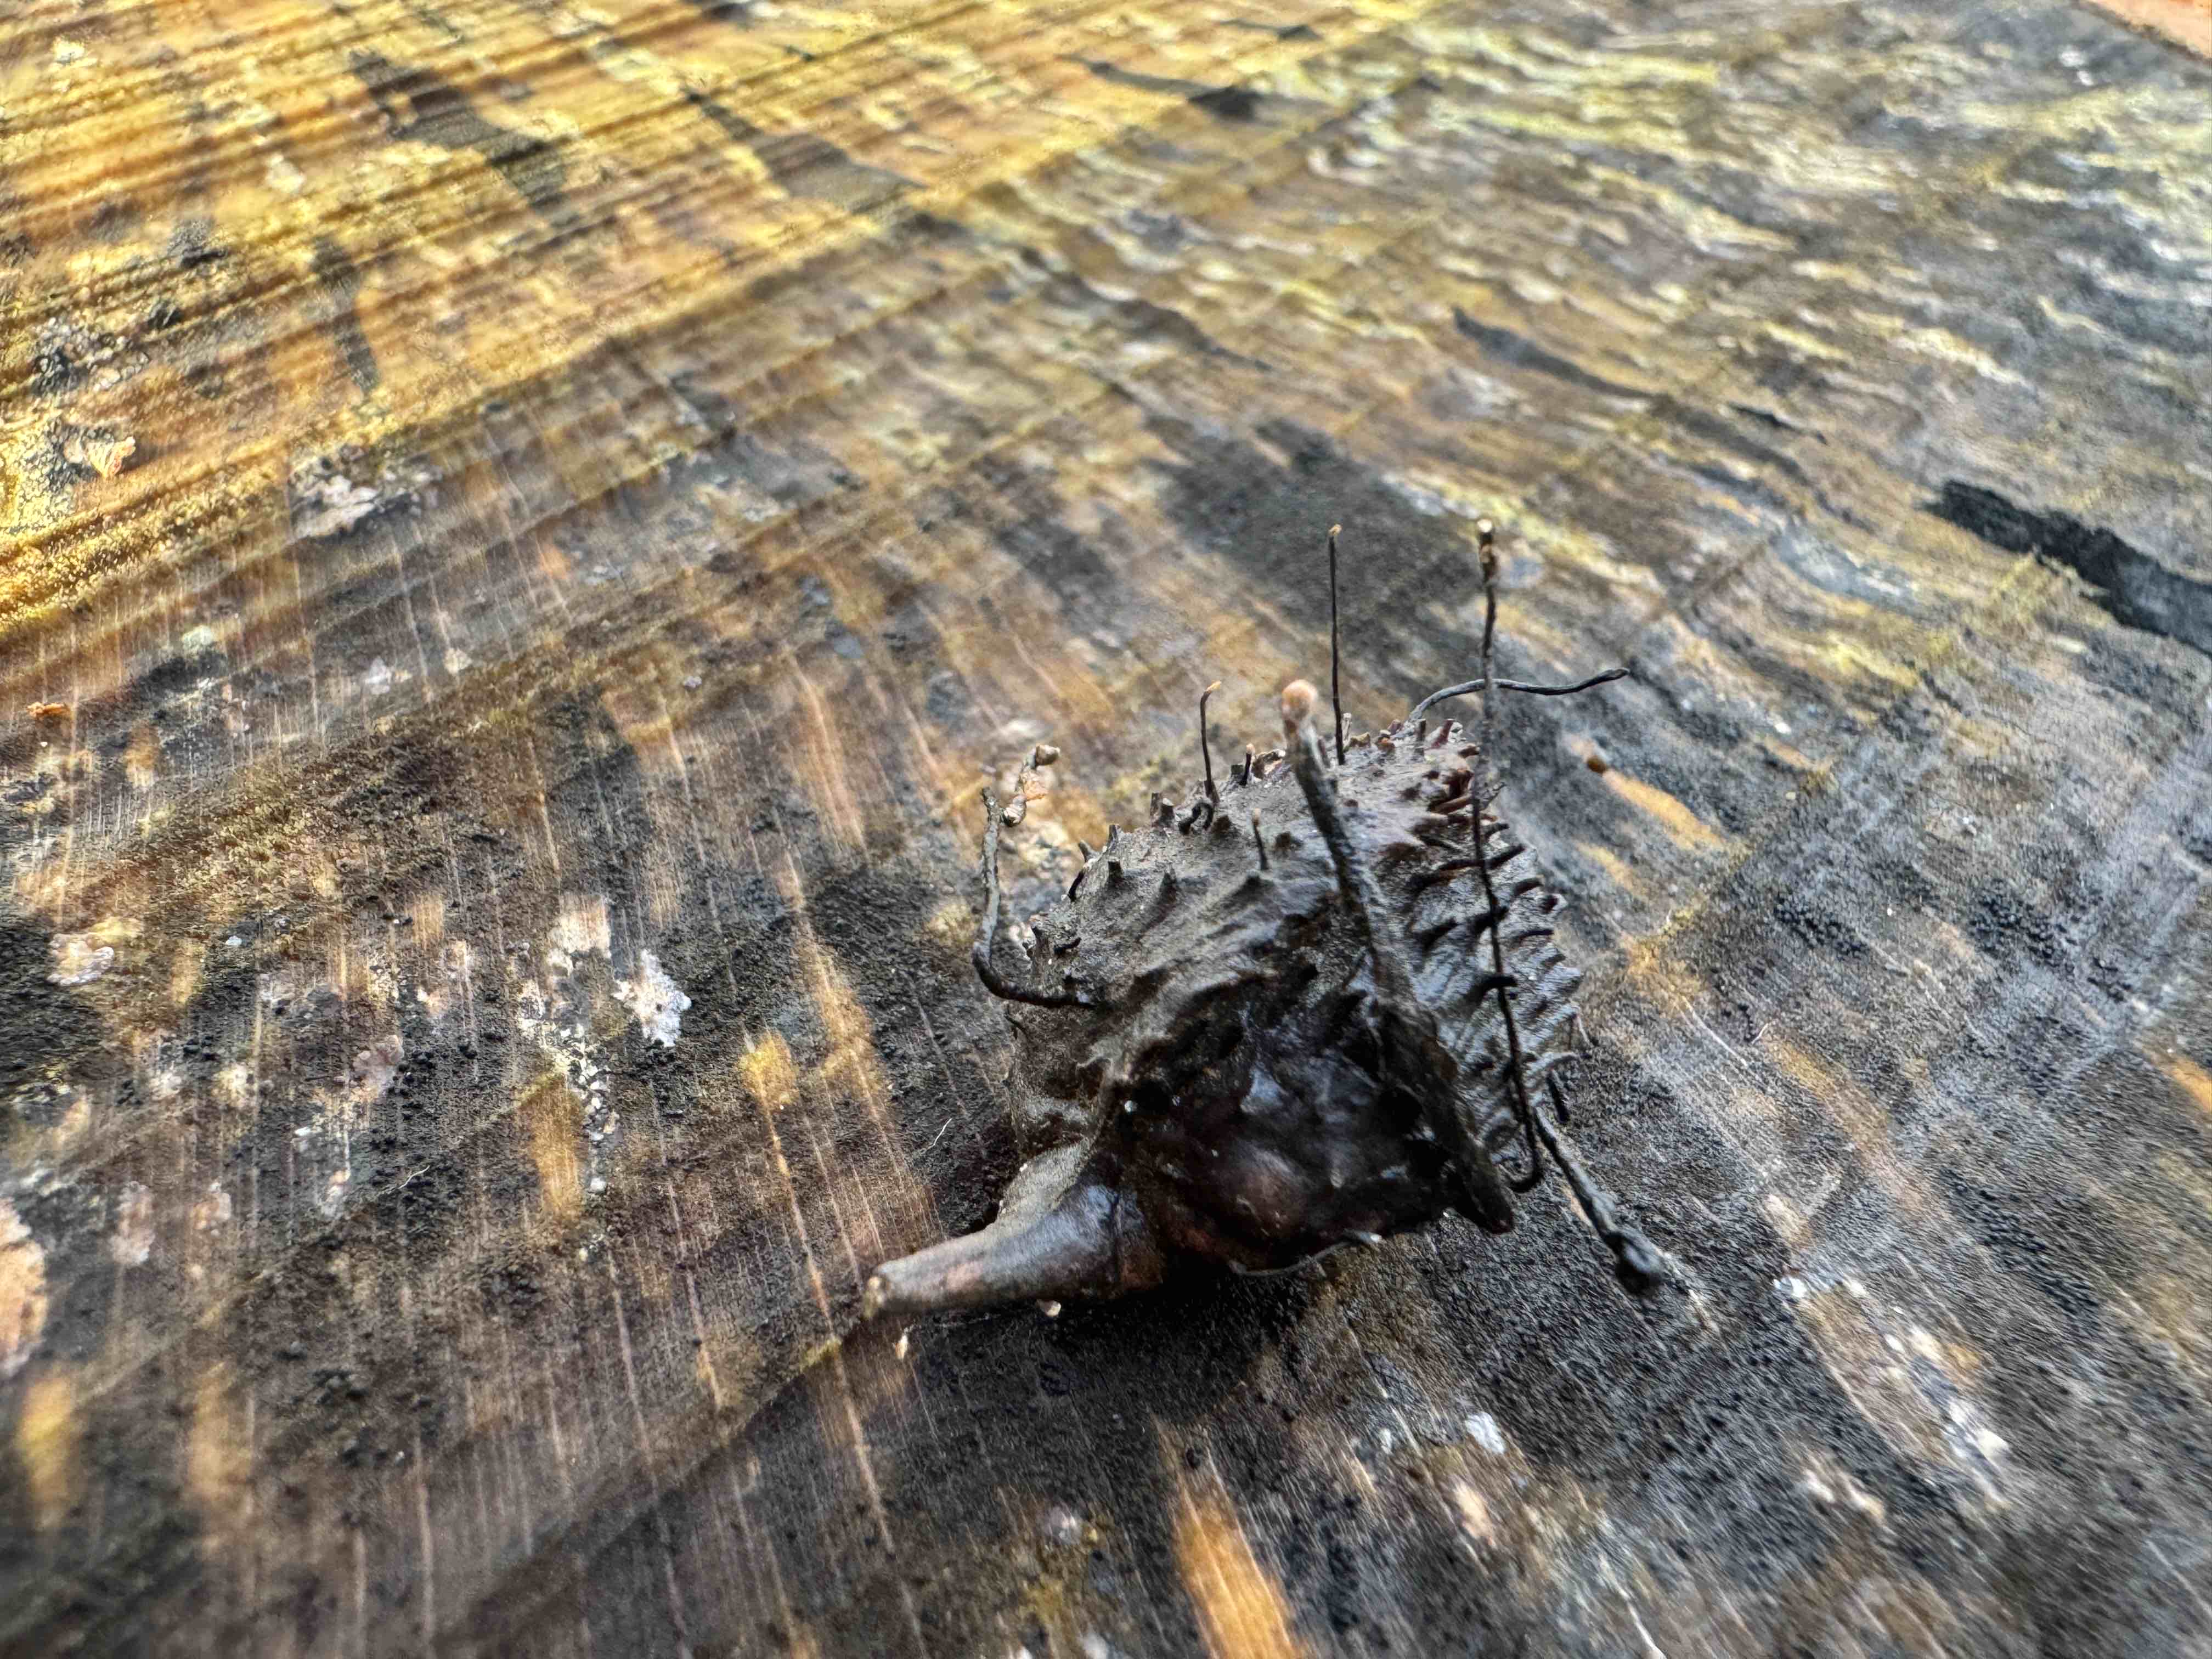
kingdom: Fungi
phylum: Ascomycota
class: Sordariomycetes
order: Xylariales
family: Xylariaceae
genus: Xylaria
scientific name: Xylaria carpophila
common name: bogskål-stødsvamp
